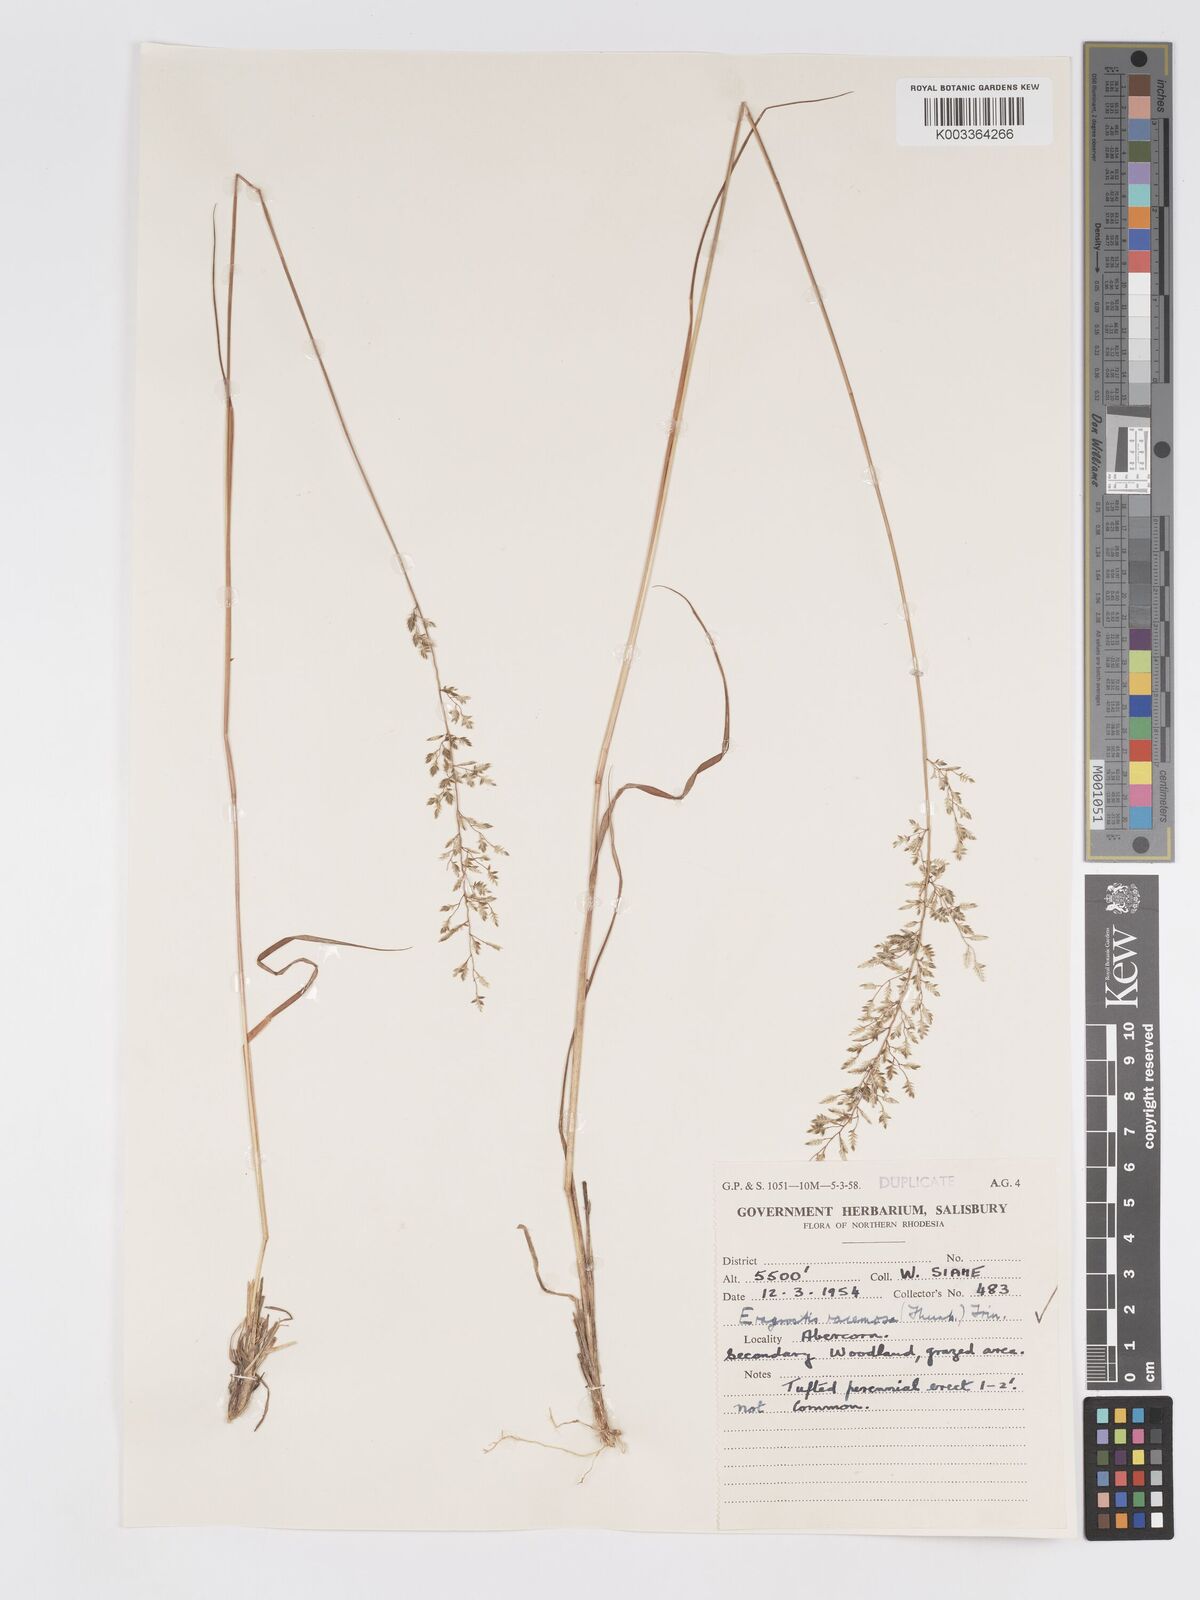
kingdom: Plantae
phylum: Tracheophyta
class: Liliopsida
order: Poales
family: Poaceae
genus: Eragrostis
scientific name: Eragrostis racemosa
